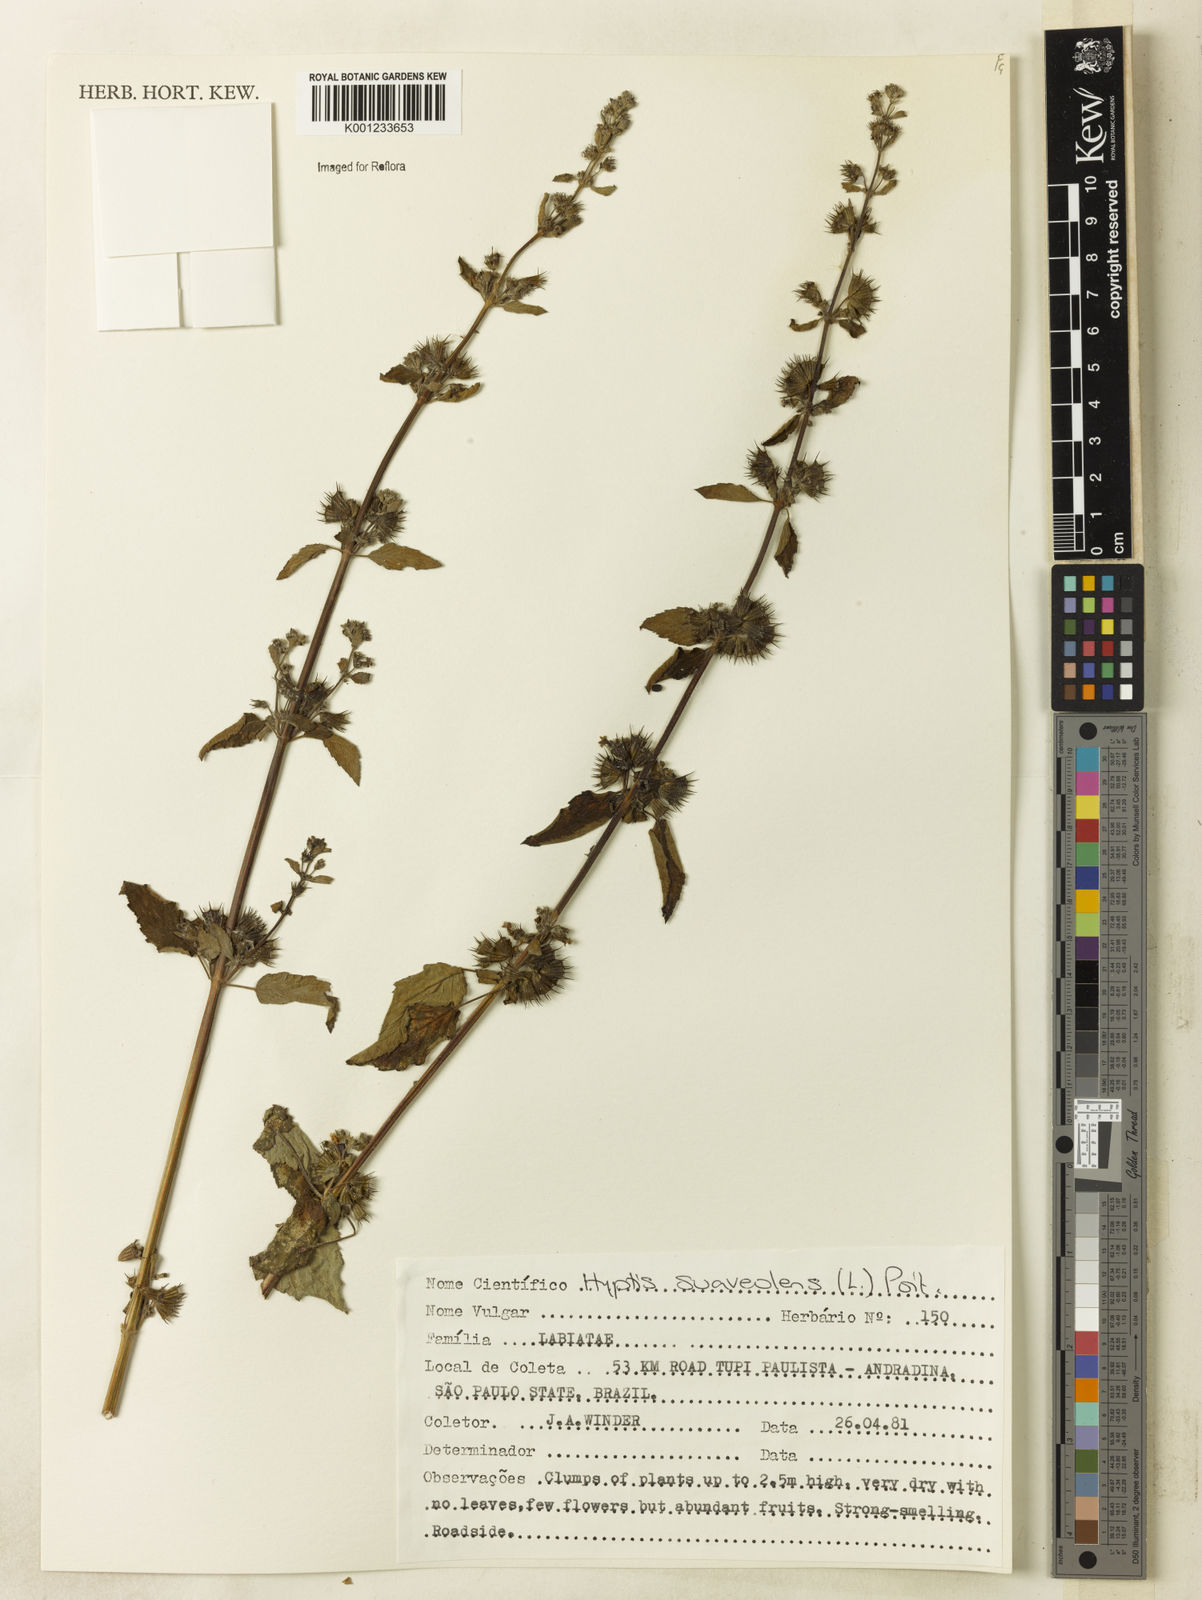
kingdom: Plantae
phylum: Tracheophyta
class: Magnoliopsida
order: Lamiales
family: Lamiaceae
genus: Mesosphaerum
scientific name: Mesosphaerum suaveolens
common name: Pignut
